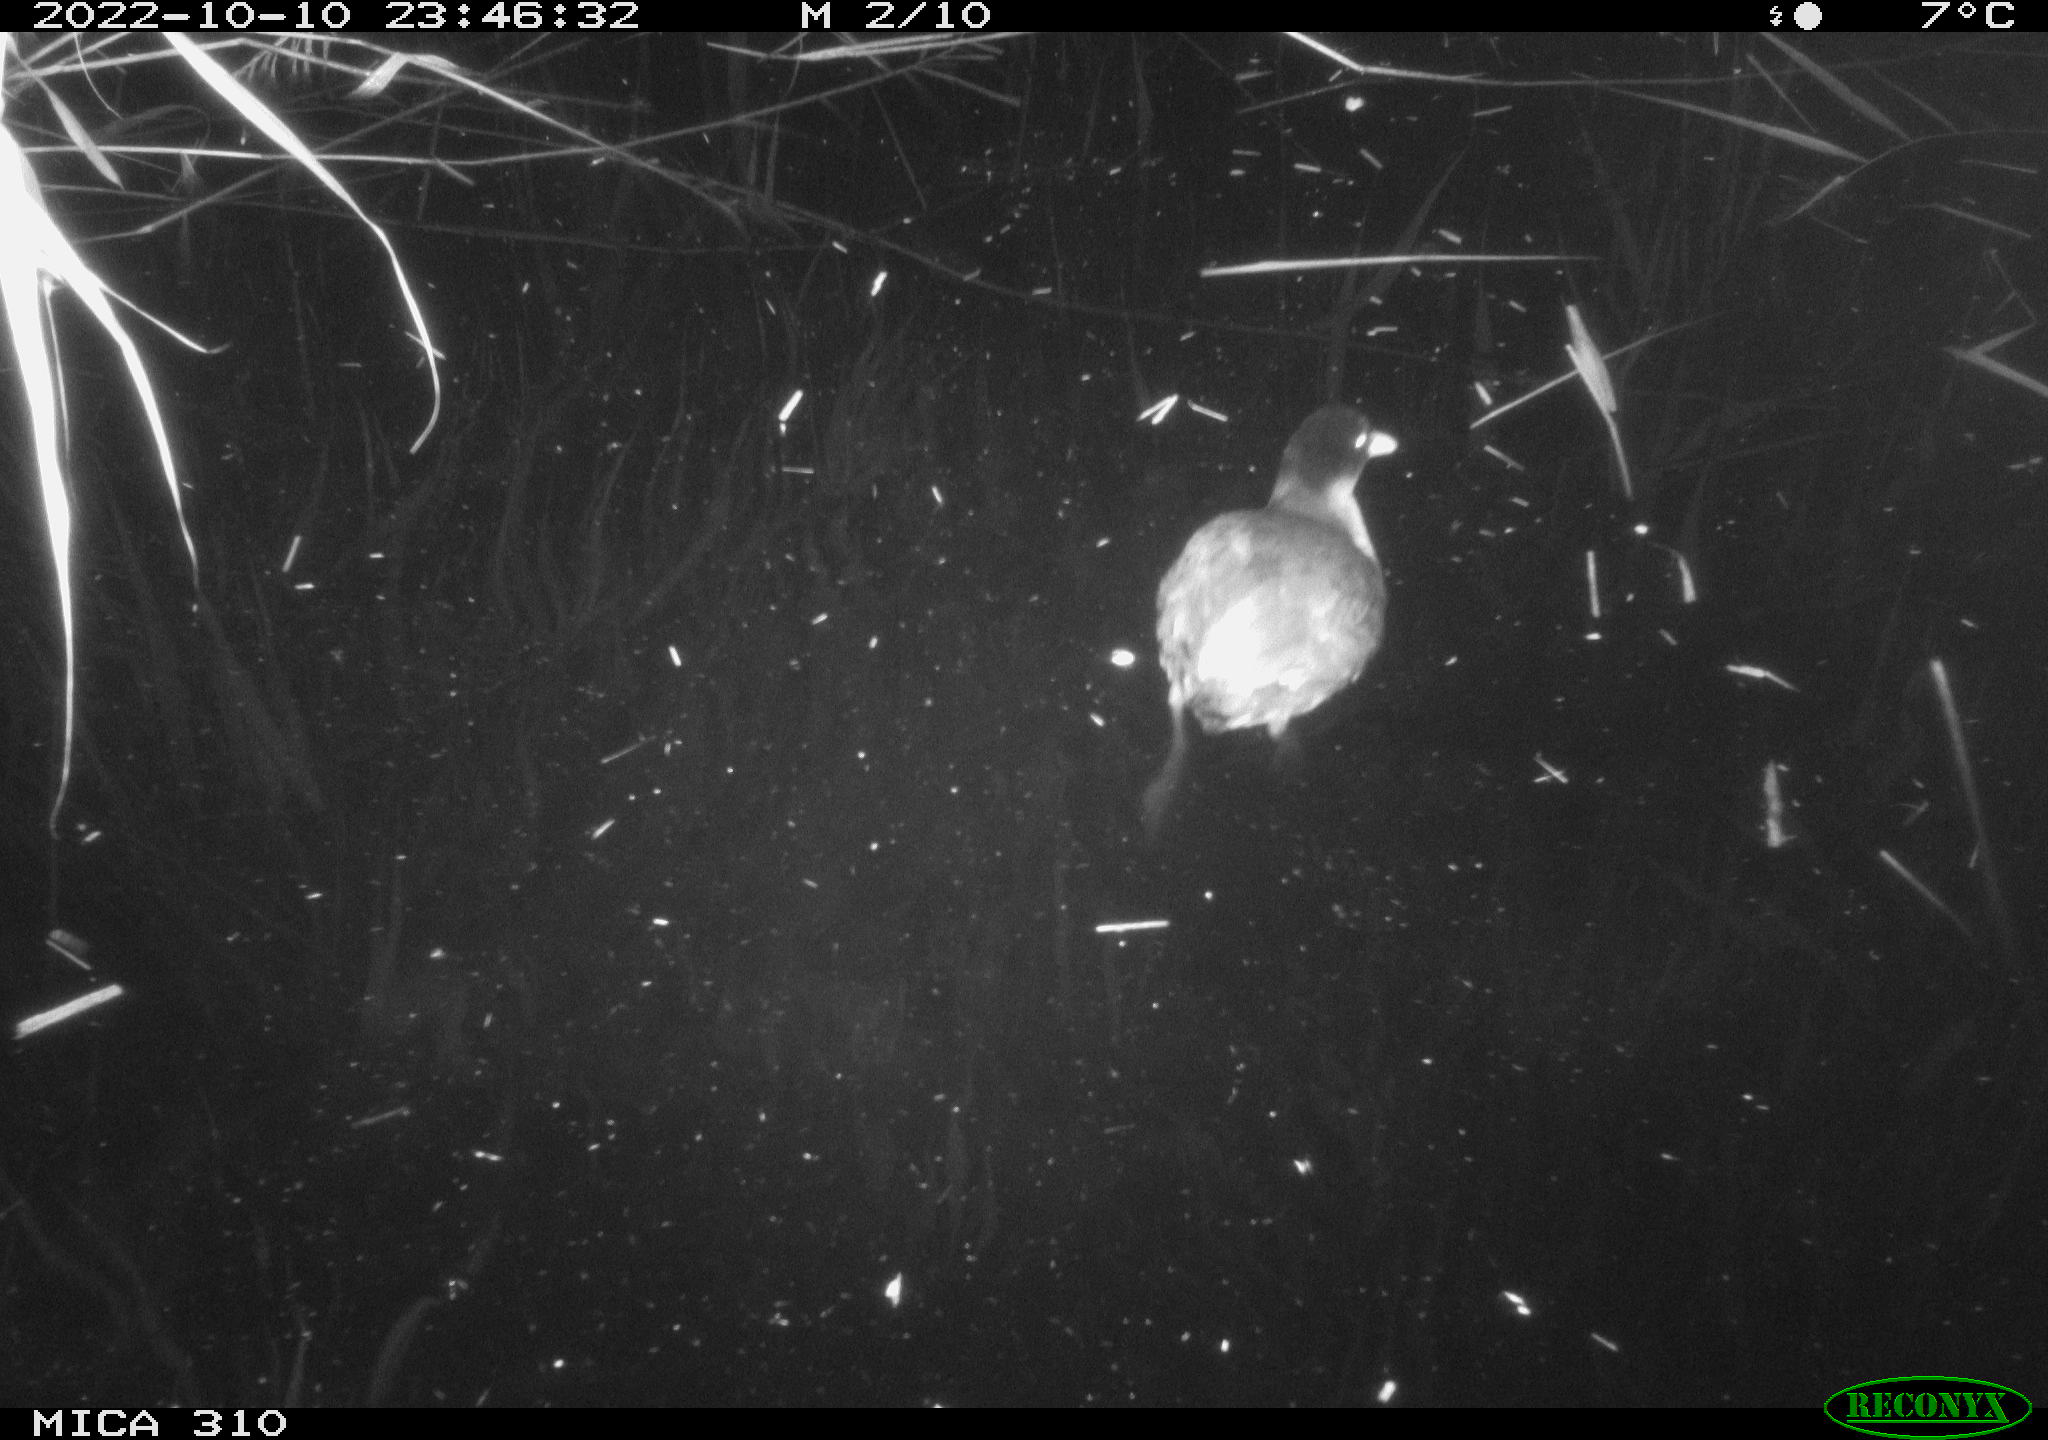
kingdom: Animalia
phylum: Chordata
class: Aves
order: Gruiformes
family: Rallidae
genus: Fulica
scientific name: Fulica atra
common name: Eurasian coot
